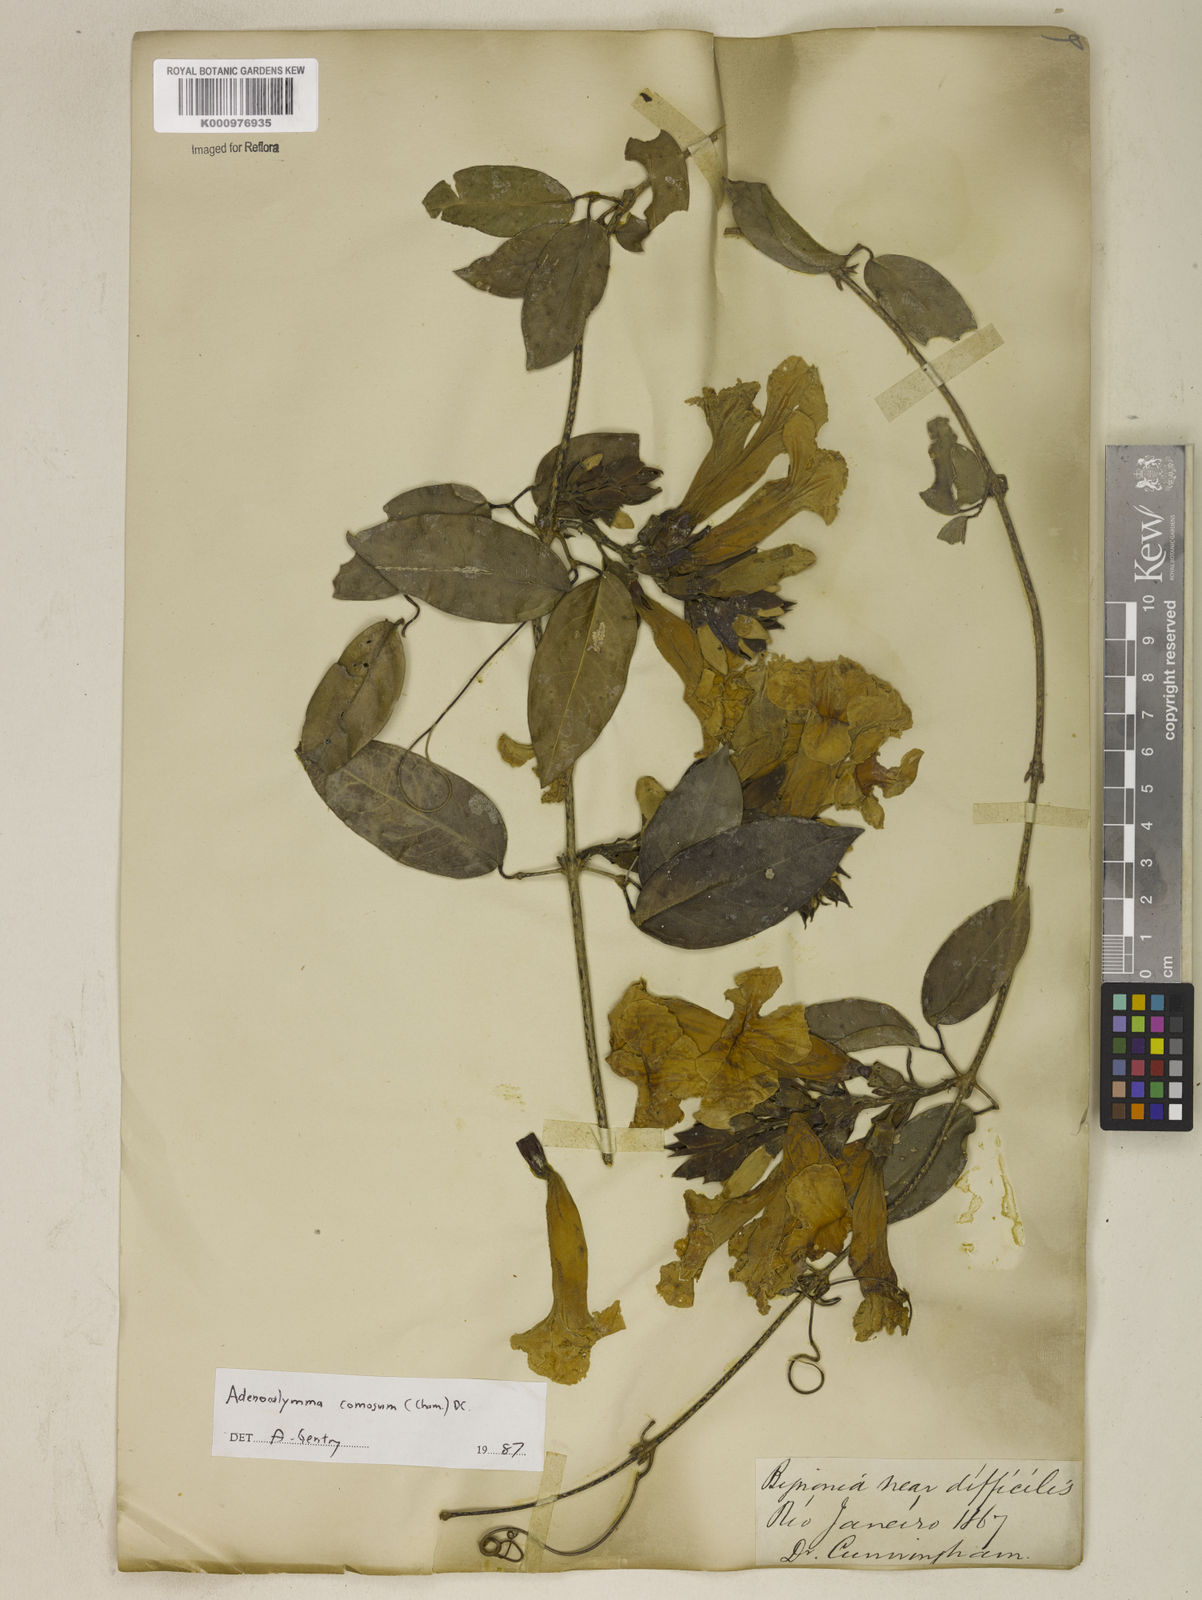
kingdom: Plantae
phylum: Tracheophyta
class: Magnoliopsida
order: Lamiales
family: Bignoniaceae
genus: Adenocalymma
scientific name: Adenocalymma acutissimum
